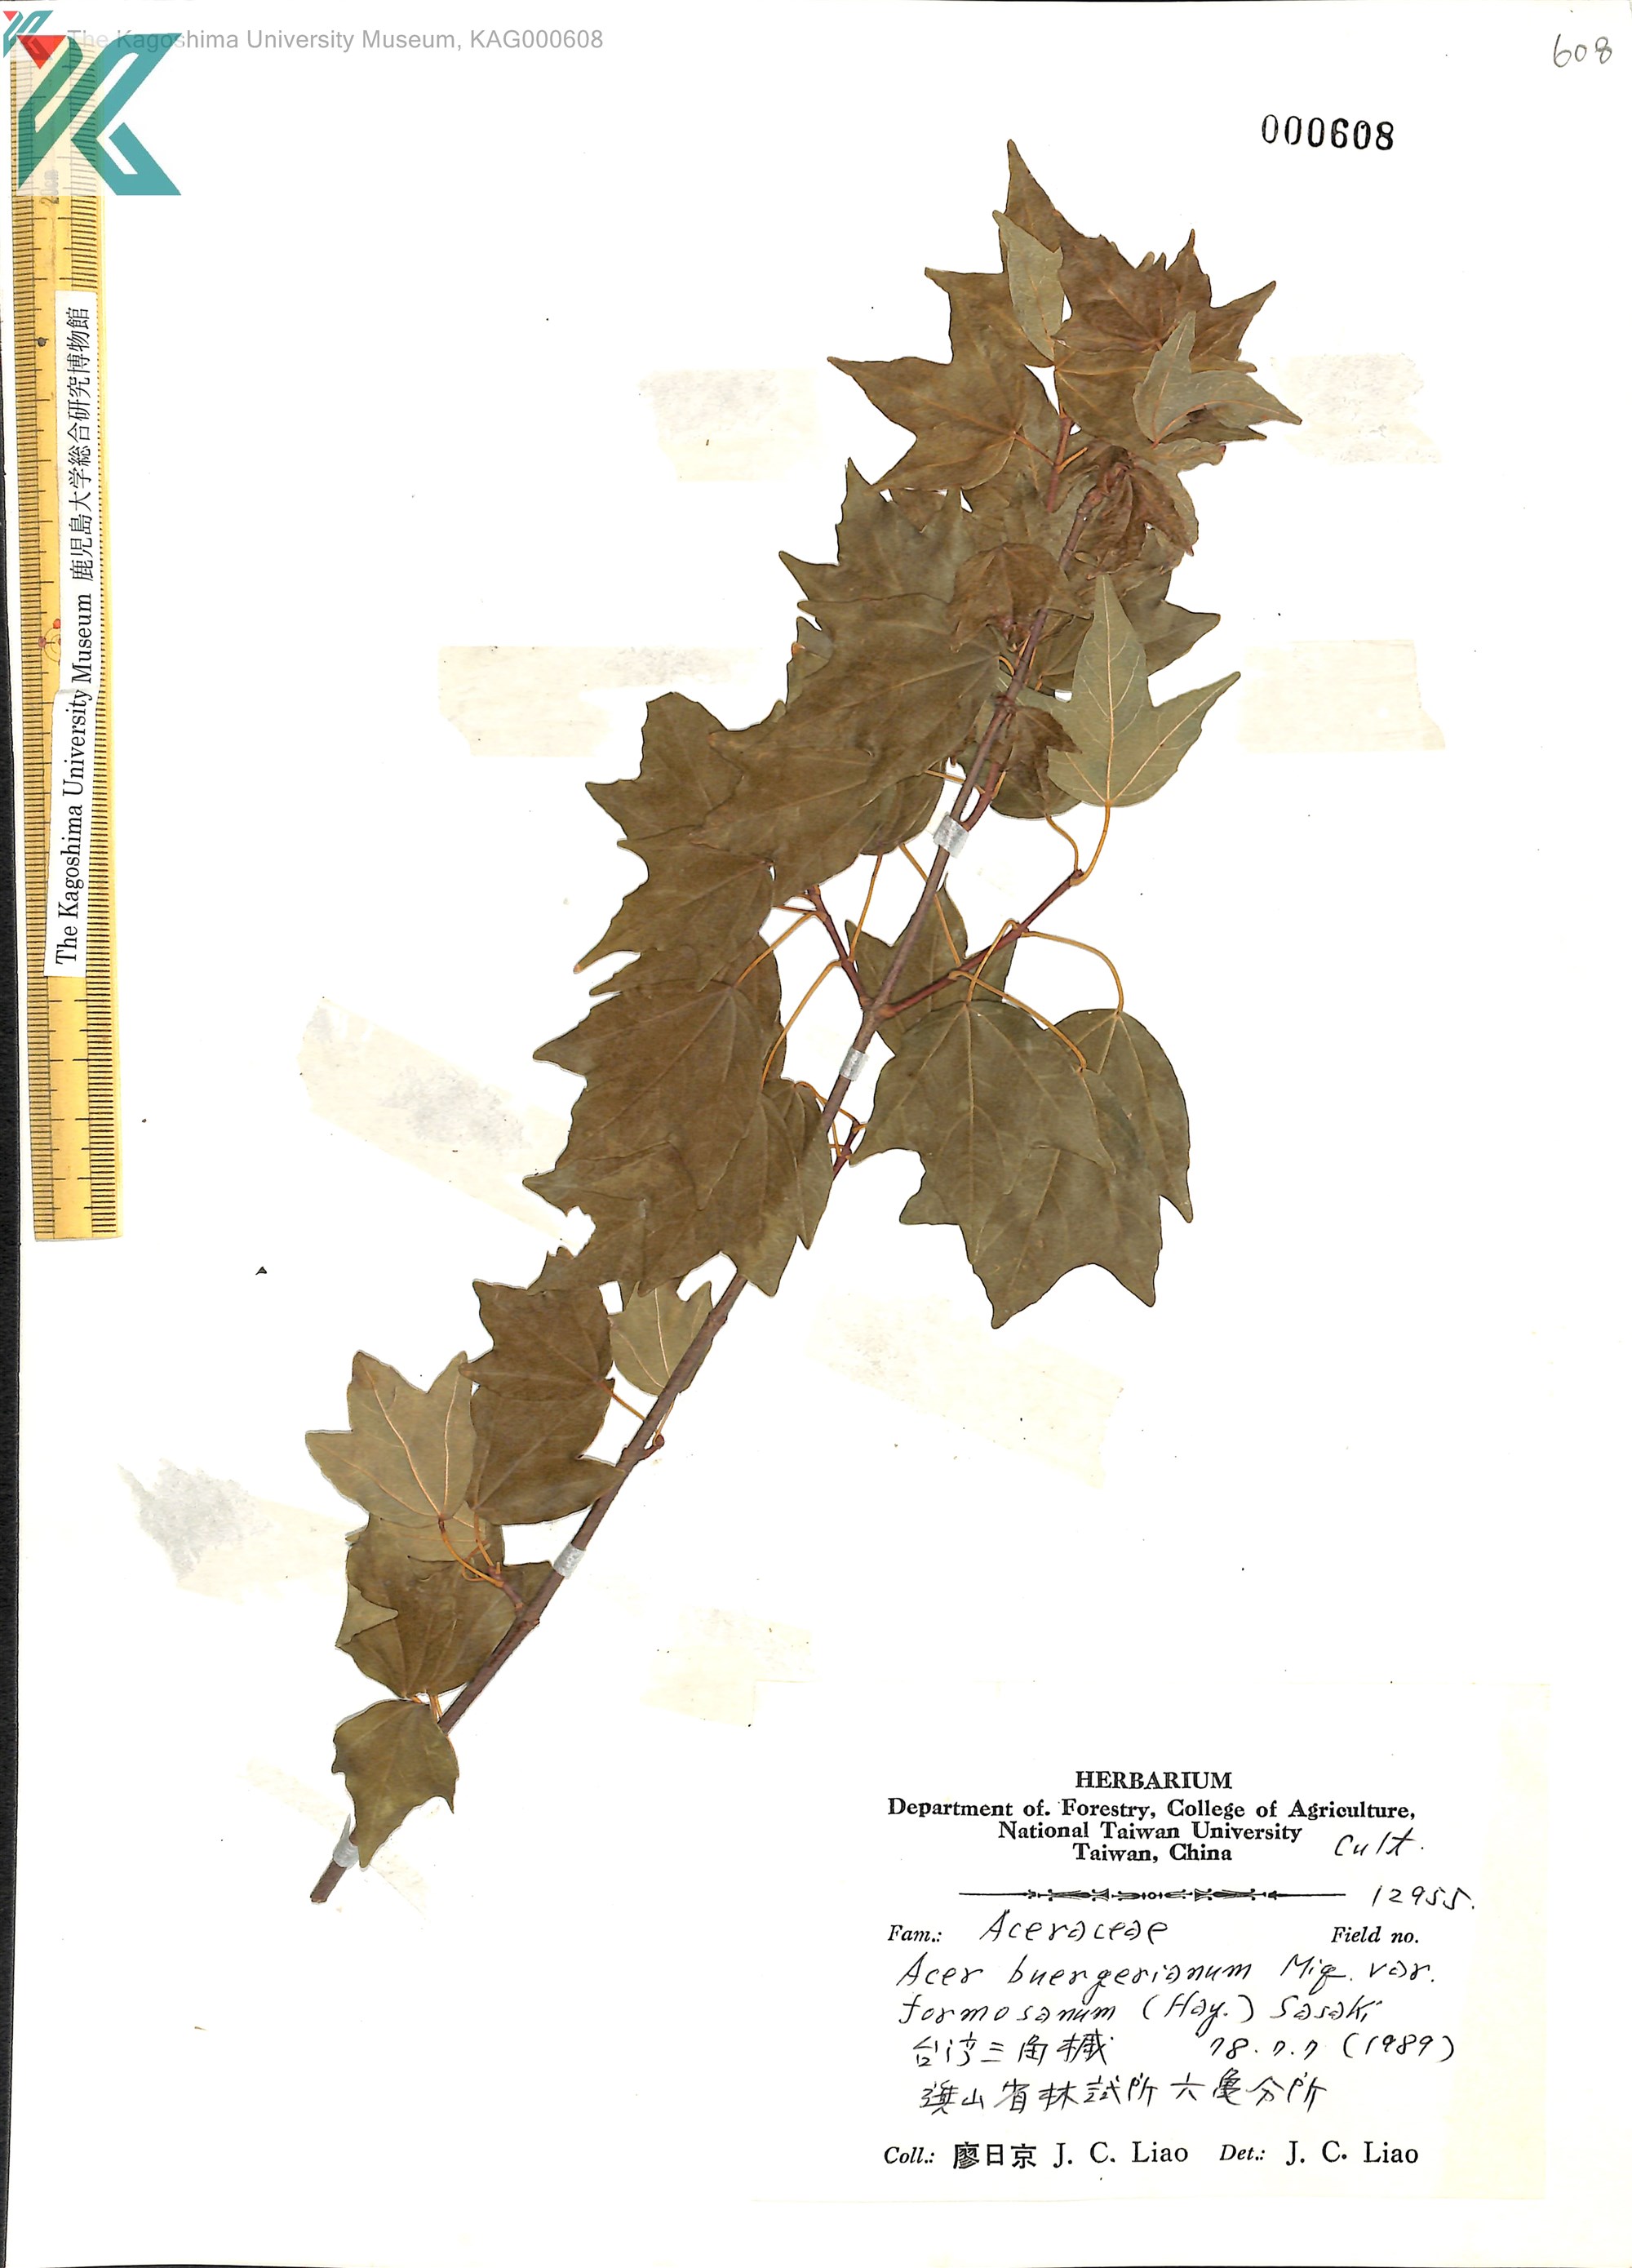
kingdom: Plantae
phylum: Tracheophyta
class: Magnoliopsida
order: Sapindales
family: Sapindaceae
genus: Acer
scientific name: Acer buergerianum
